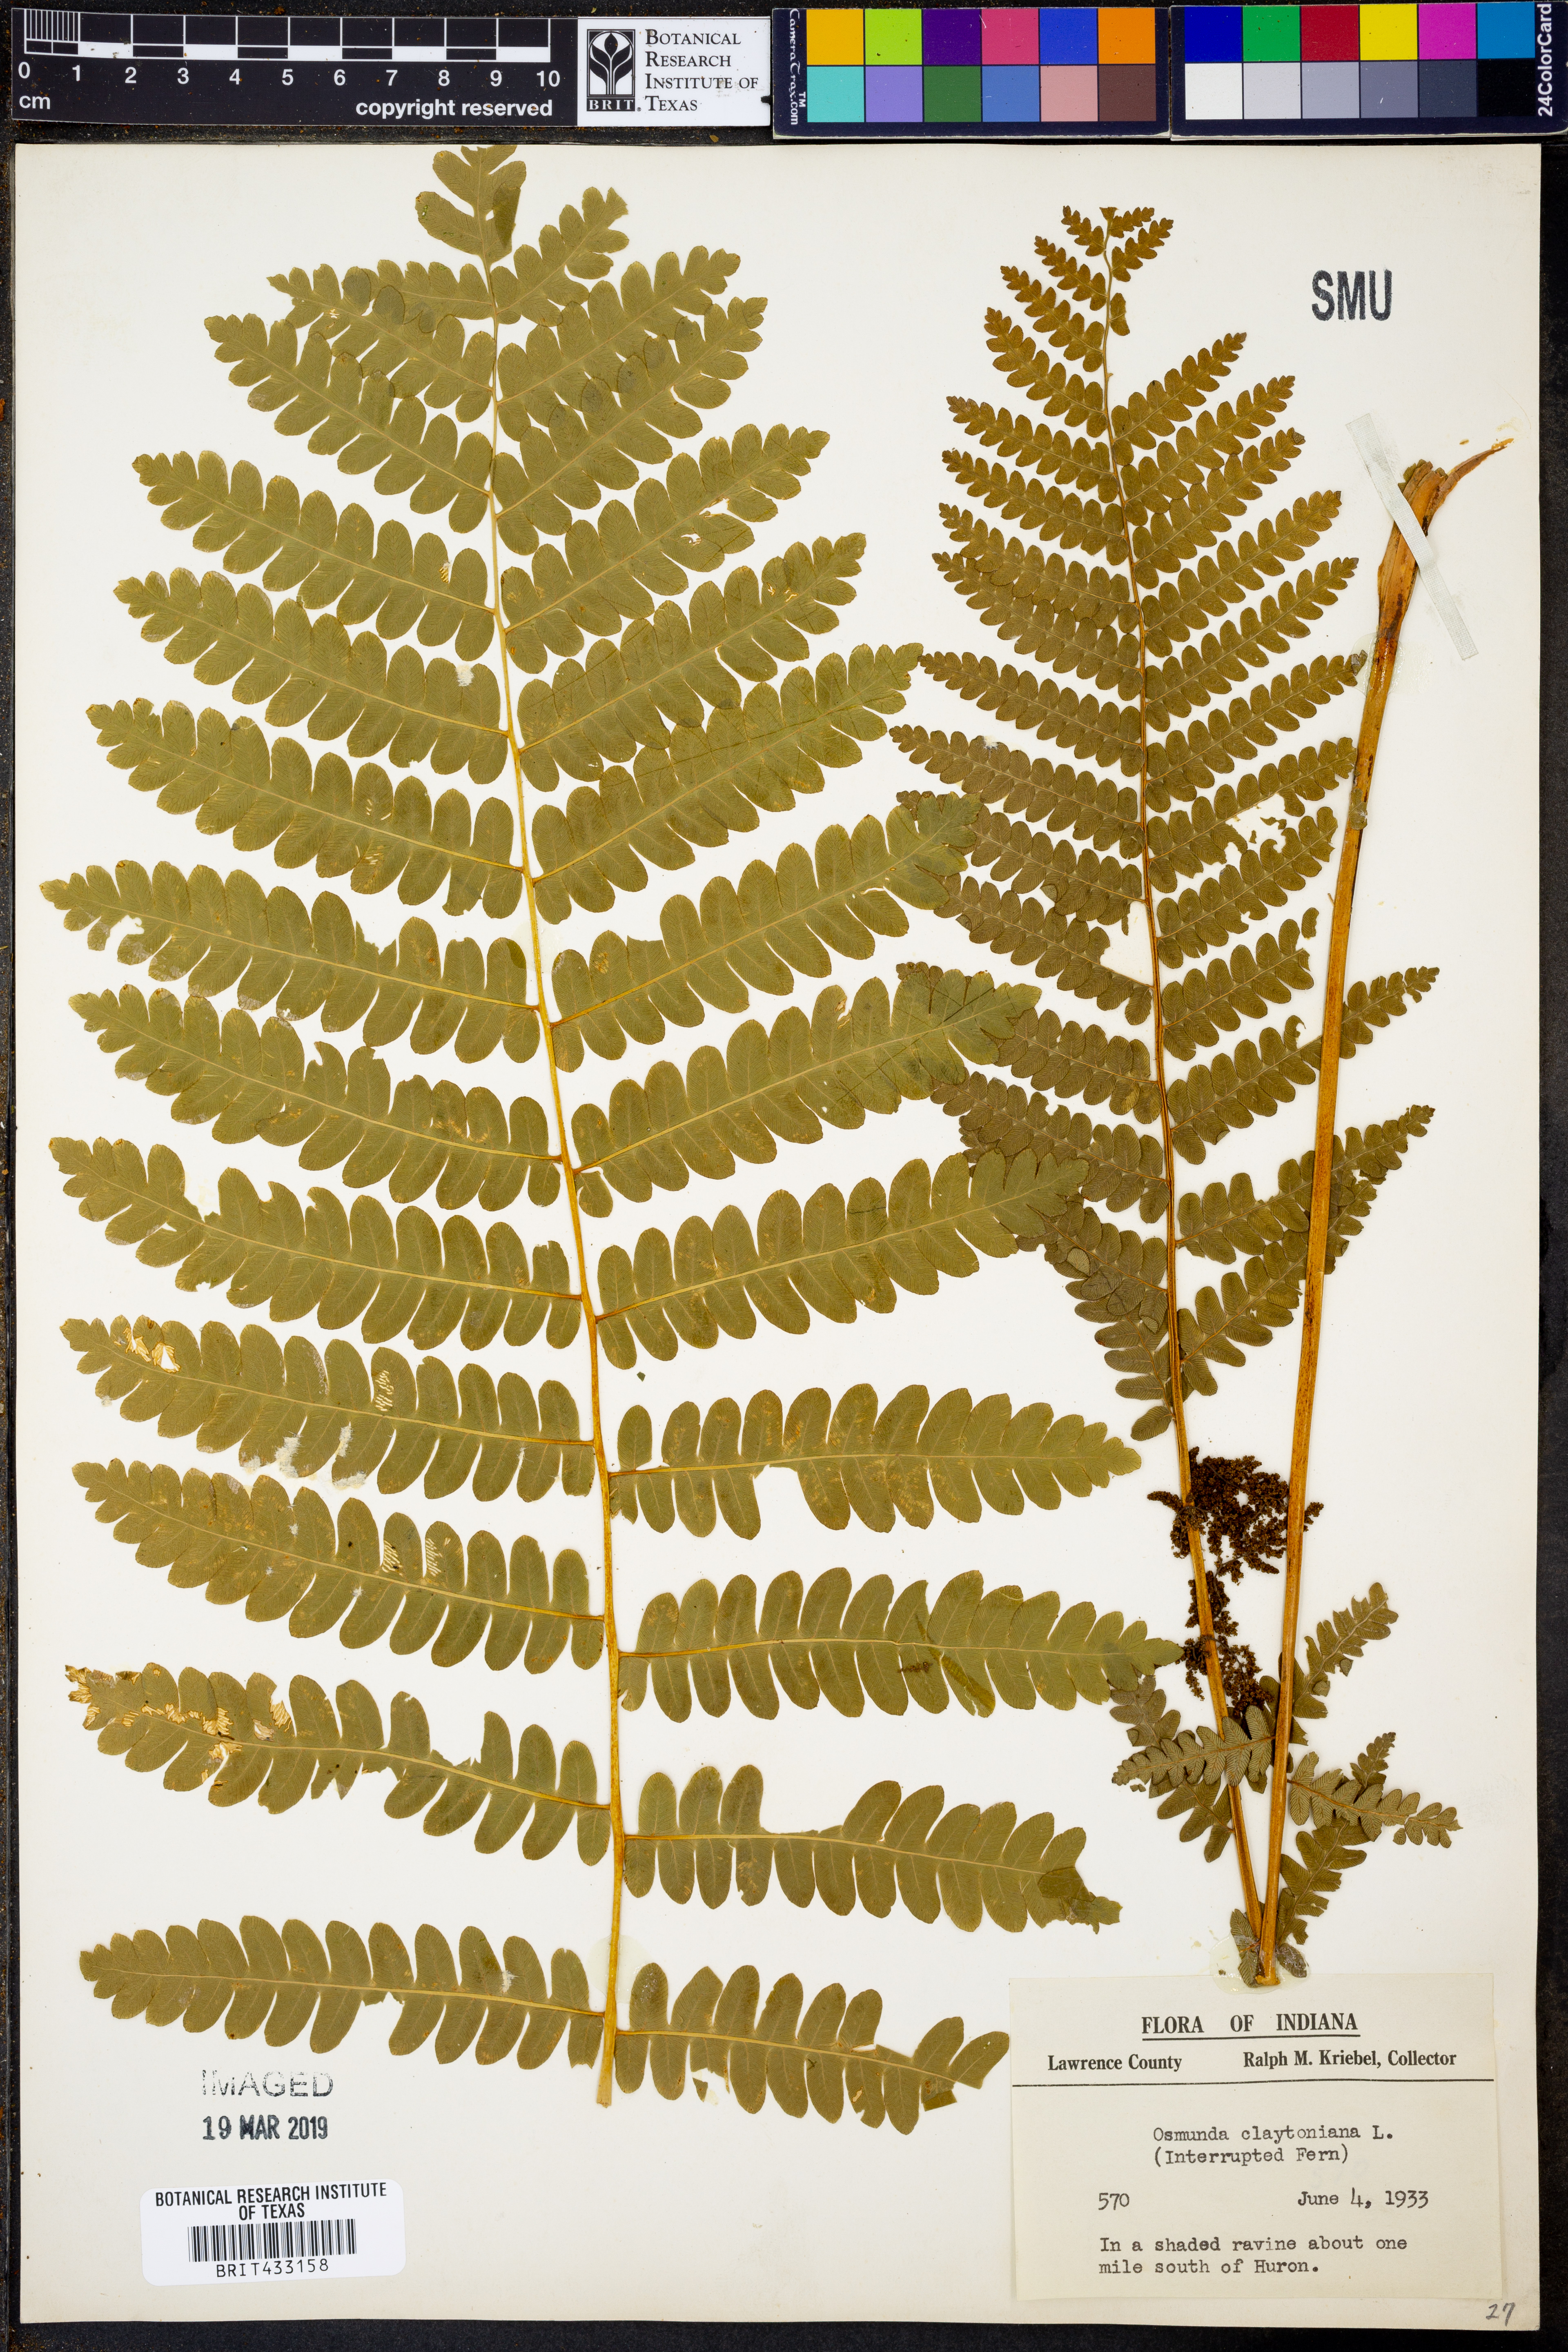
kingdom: Plantae
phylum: Tracheophyta
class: Polypodiopsida
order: Osmundales
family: Osmundaceae
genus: Claytosmunda
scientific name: Claytosmunda claytoniana
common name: Clayton's fern
